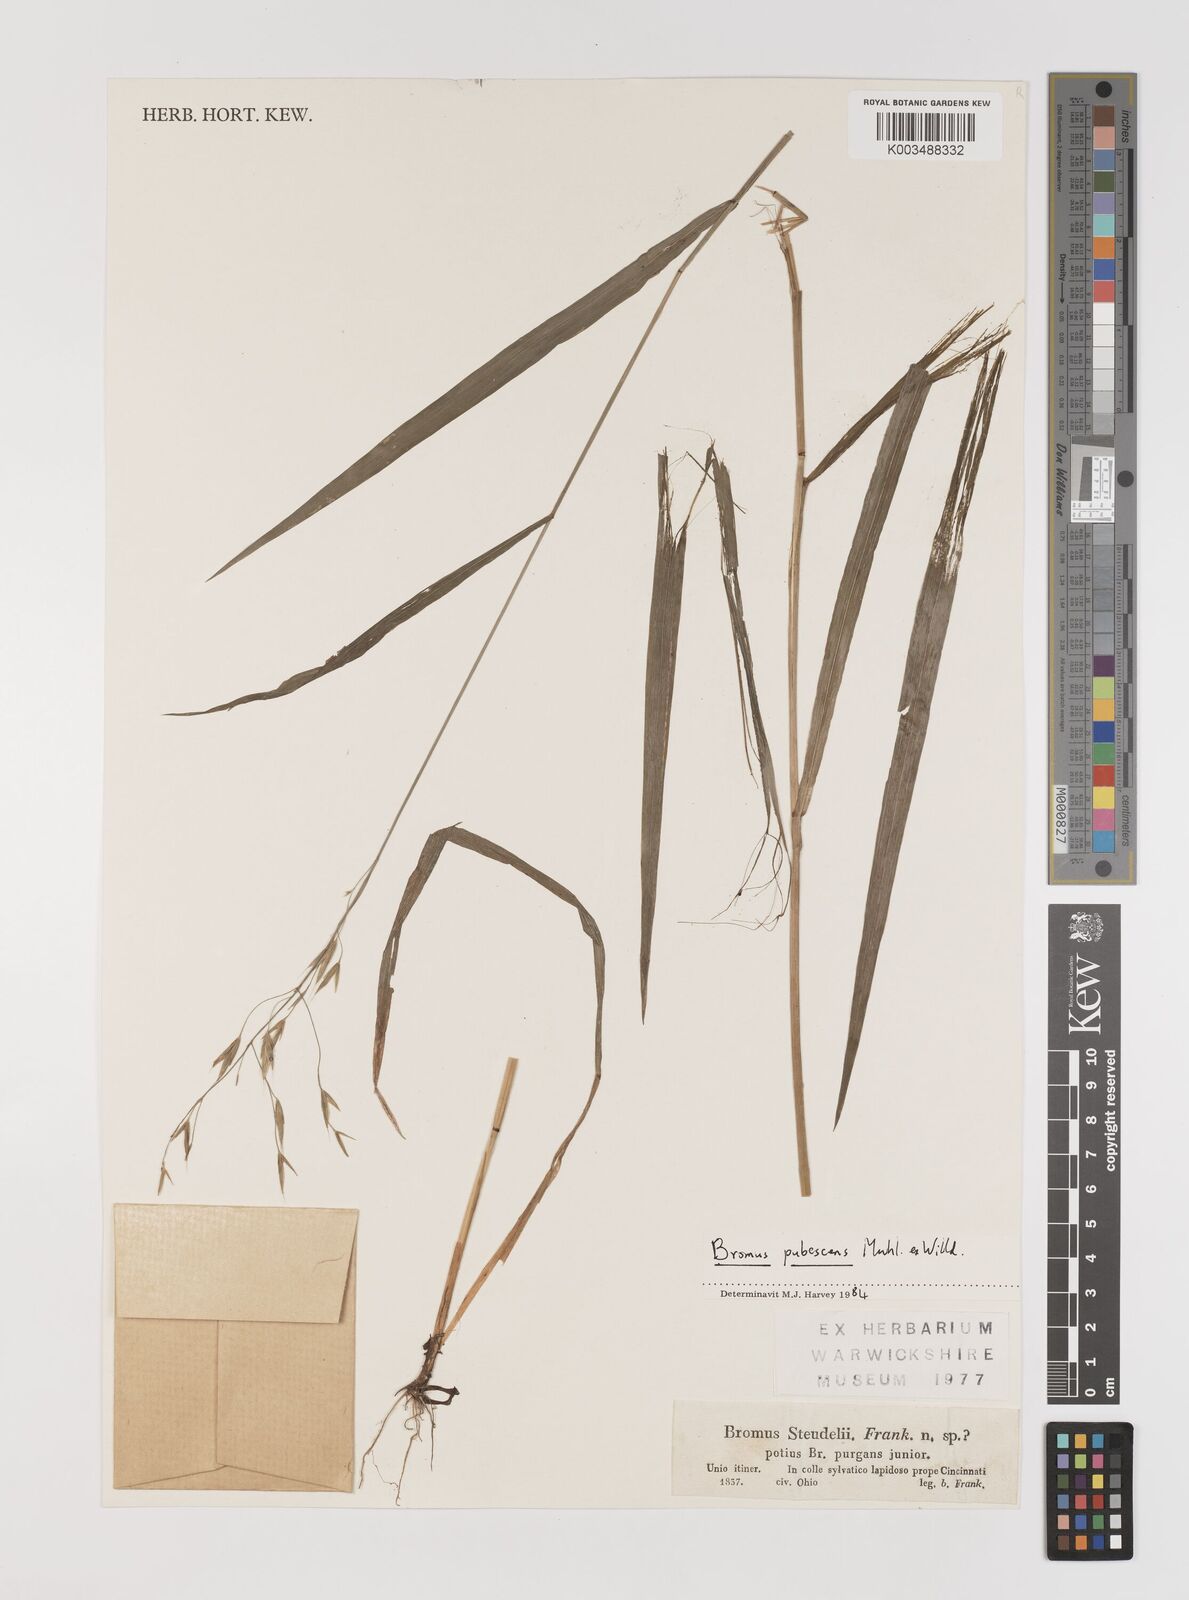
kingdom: Plantae
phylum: Tracheophyta
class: Liliopsida
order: Poales
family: Poaceae
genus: Bromus
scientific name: Bromus pubescens
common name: Hairy wood brome grass
